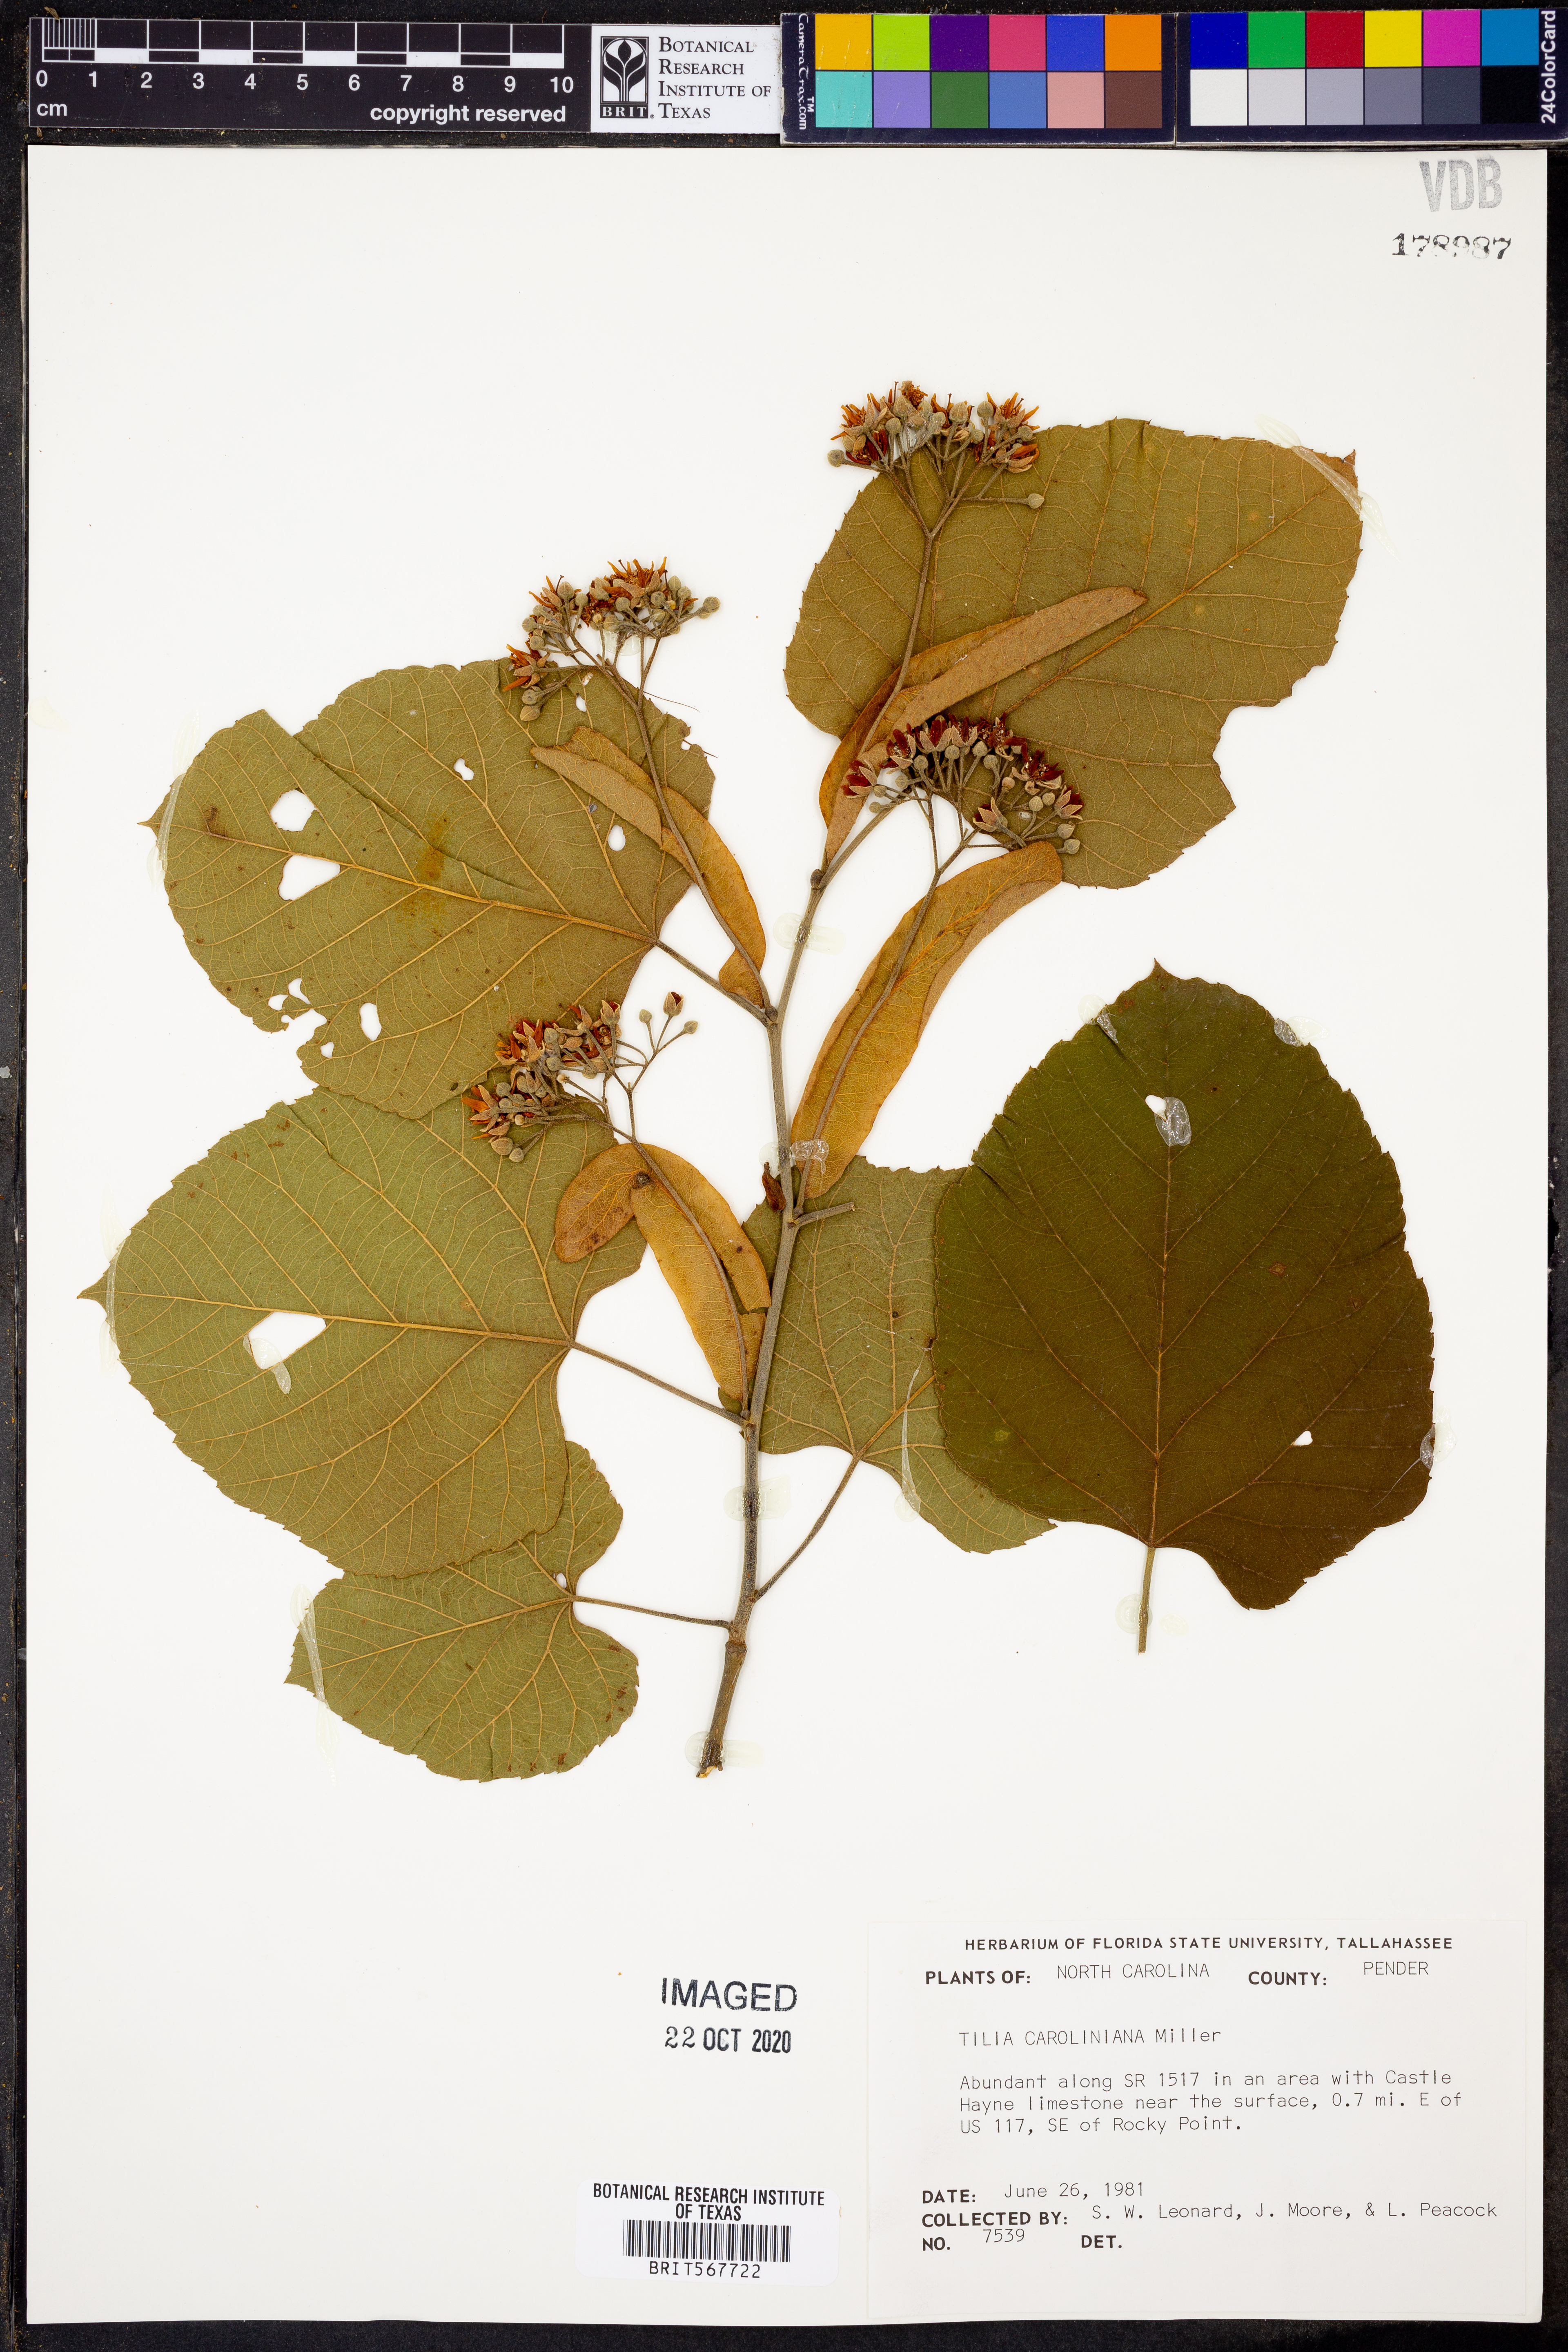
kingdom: Plantae
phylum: Tracheophyta
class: Magnoliopsida
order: Malvales
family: Malvaceae
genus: Tilia
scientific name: Tilia americana
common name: Basswood
